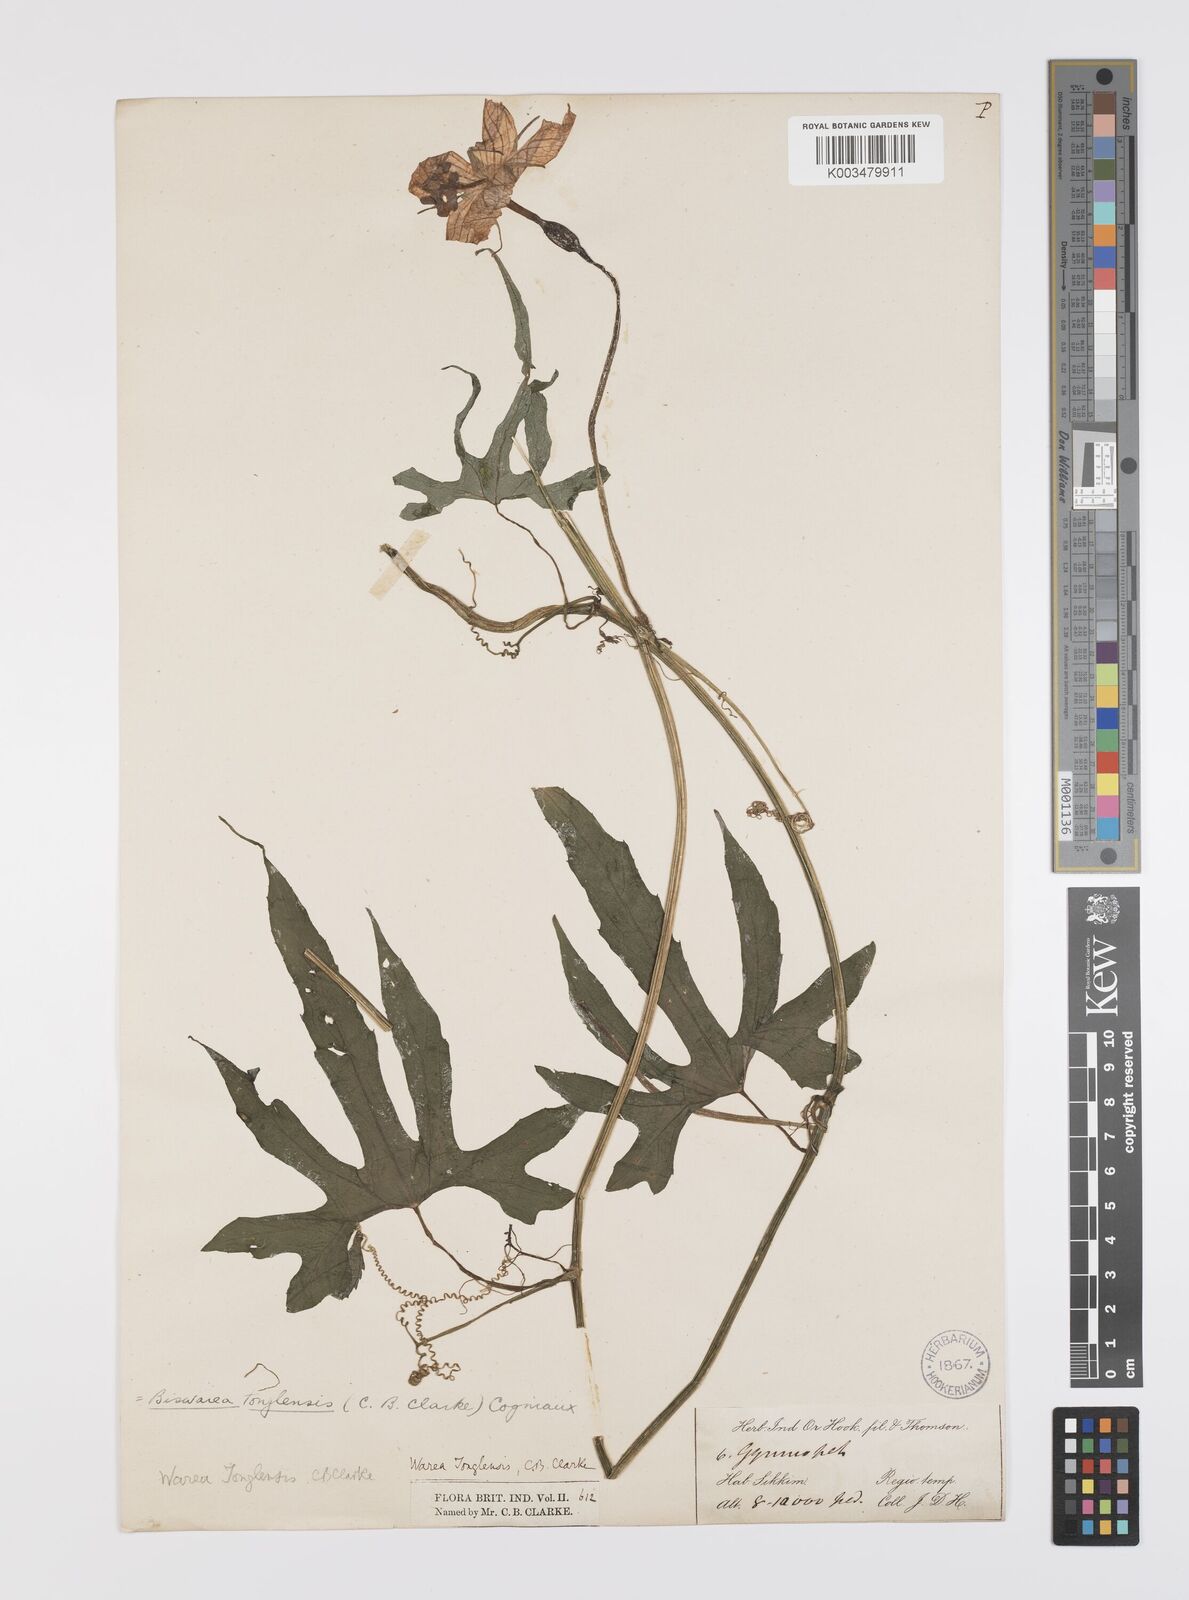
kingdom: Plantae
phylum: Tracheophyta
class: Magnoliopsida
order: Cucurbitales
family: Cucurbitaceae
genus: Benincasa
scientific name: Benincasa
